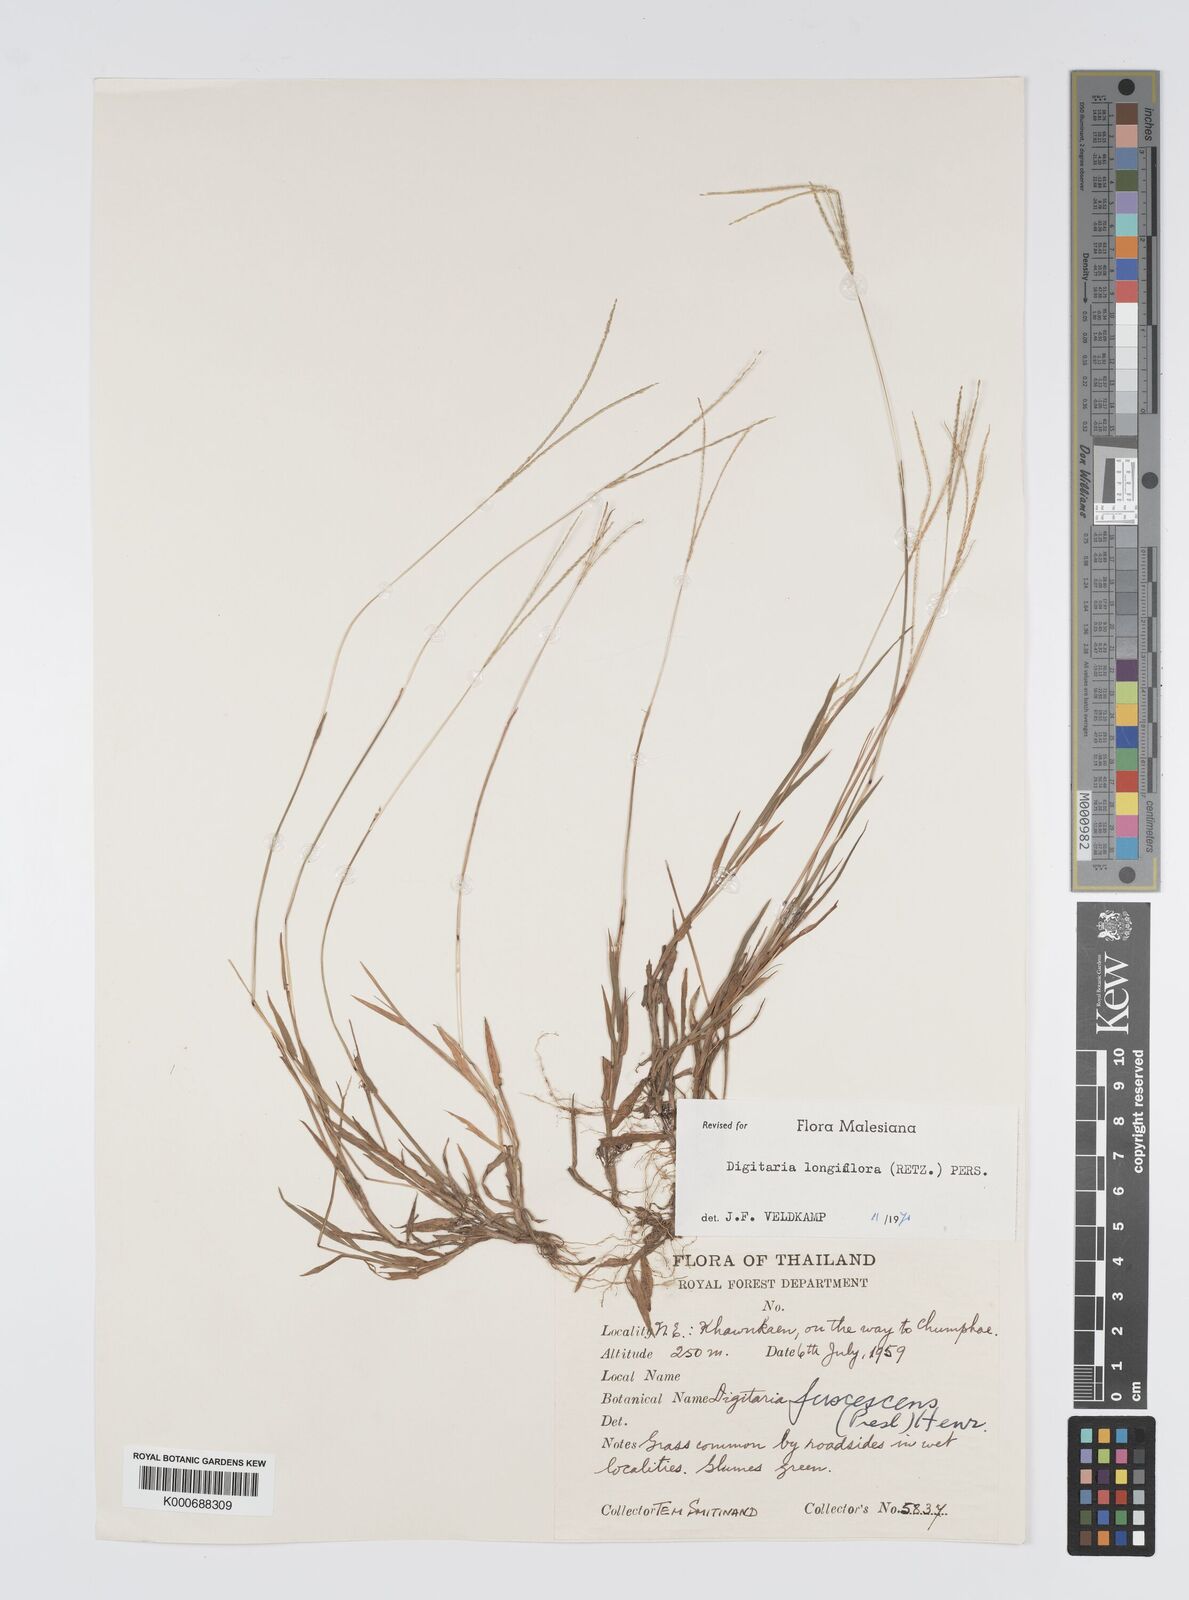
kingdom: Plantae
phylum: Tracheophyta
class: Liliopsida
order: Poales
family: Poaceae
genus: Digitaria
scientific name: Digitaria longiflora
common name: Wire crabgrass
